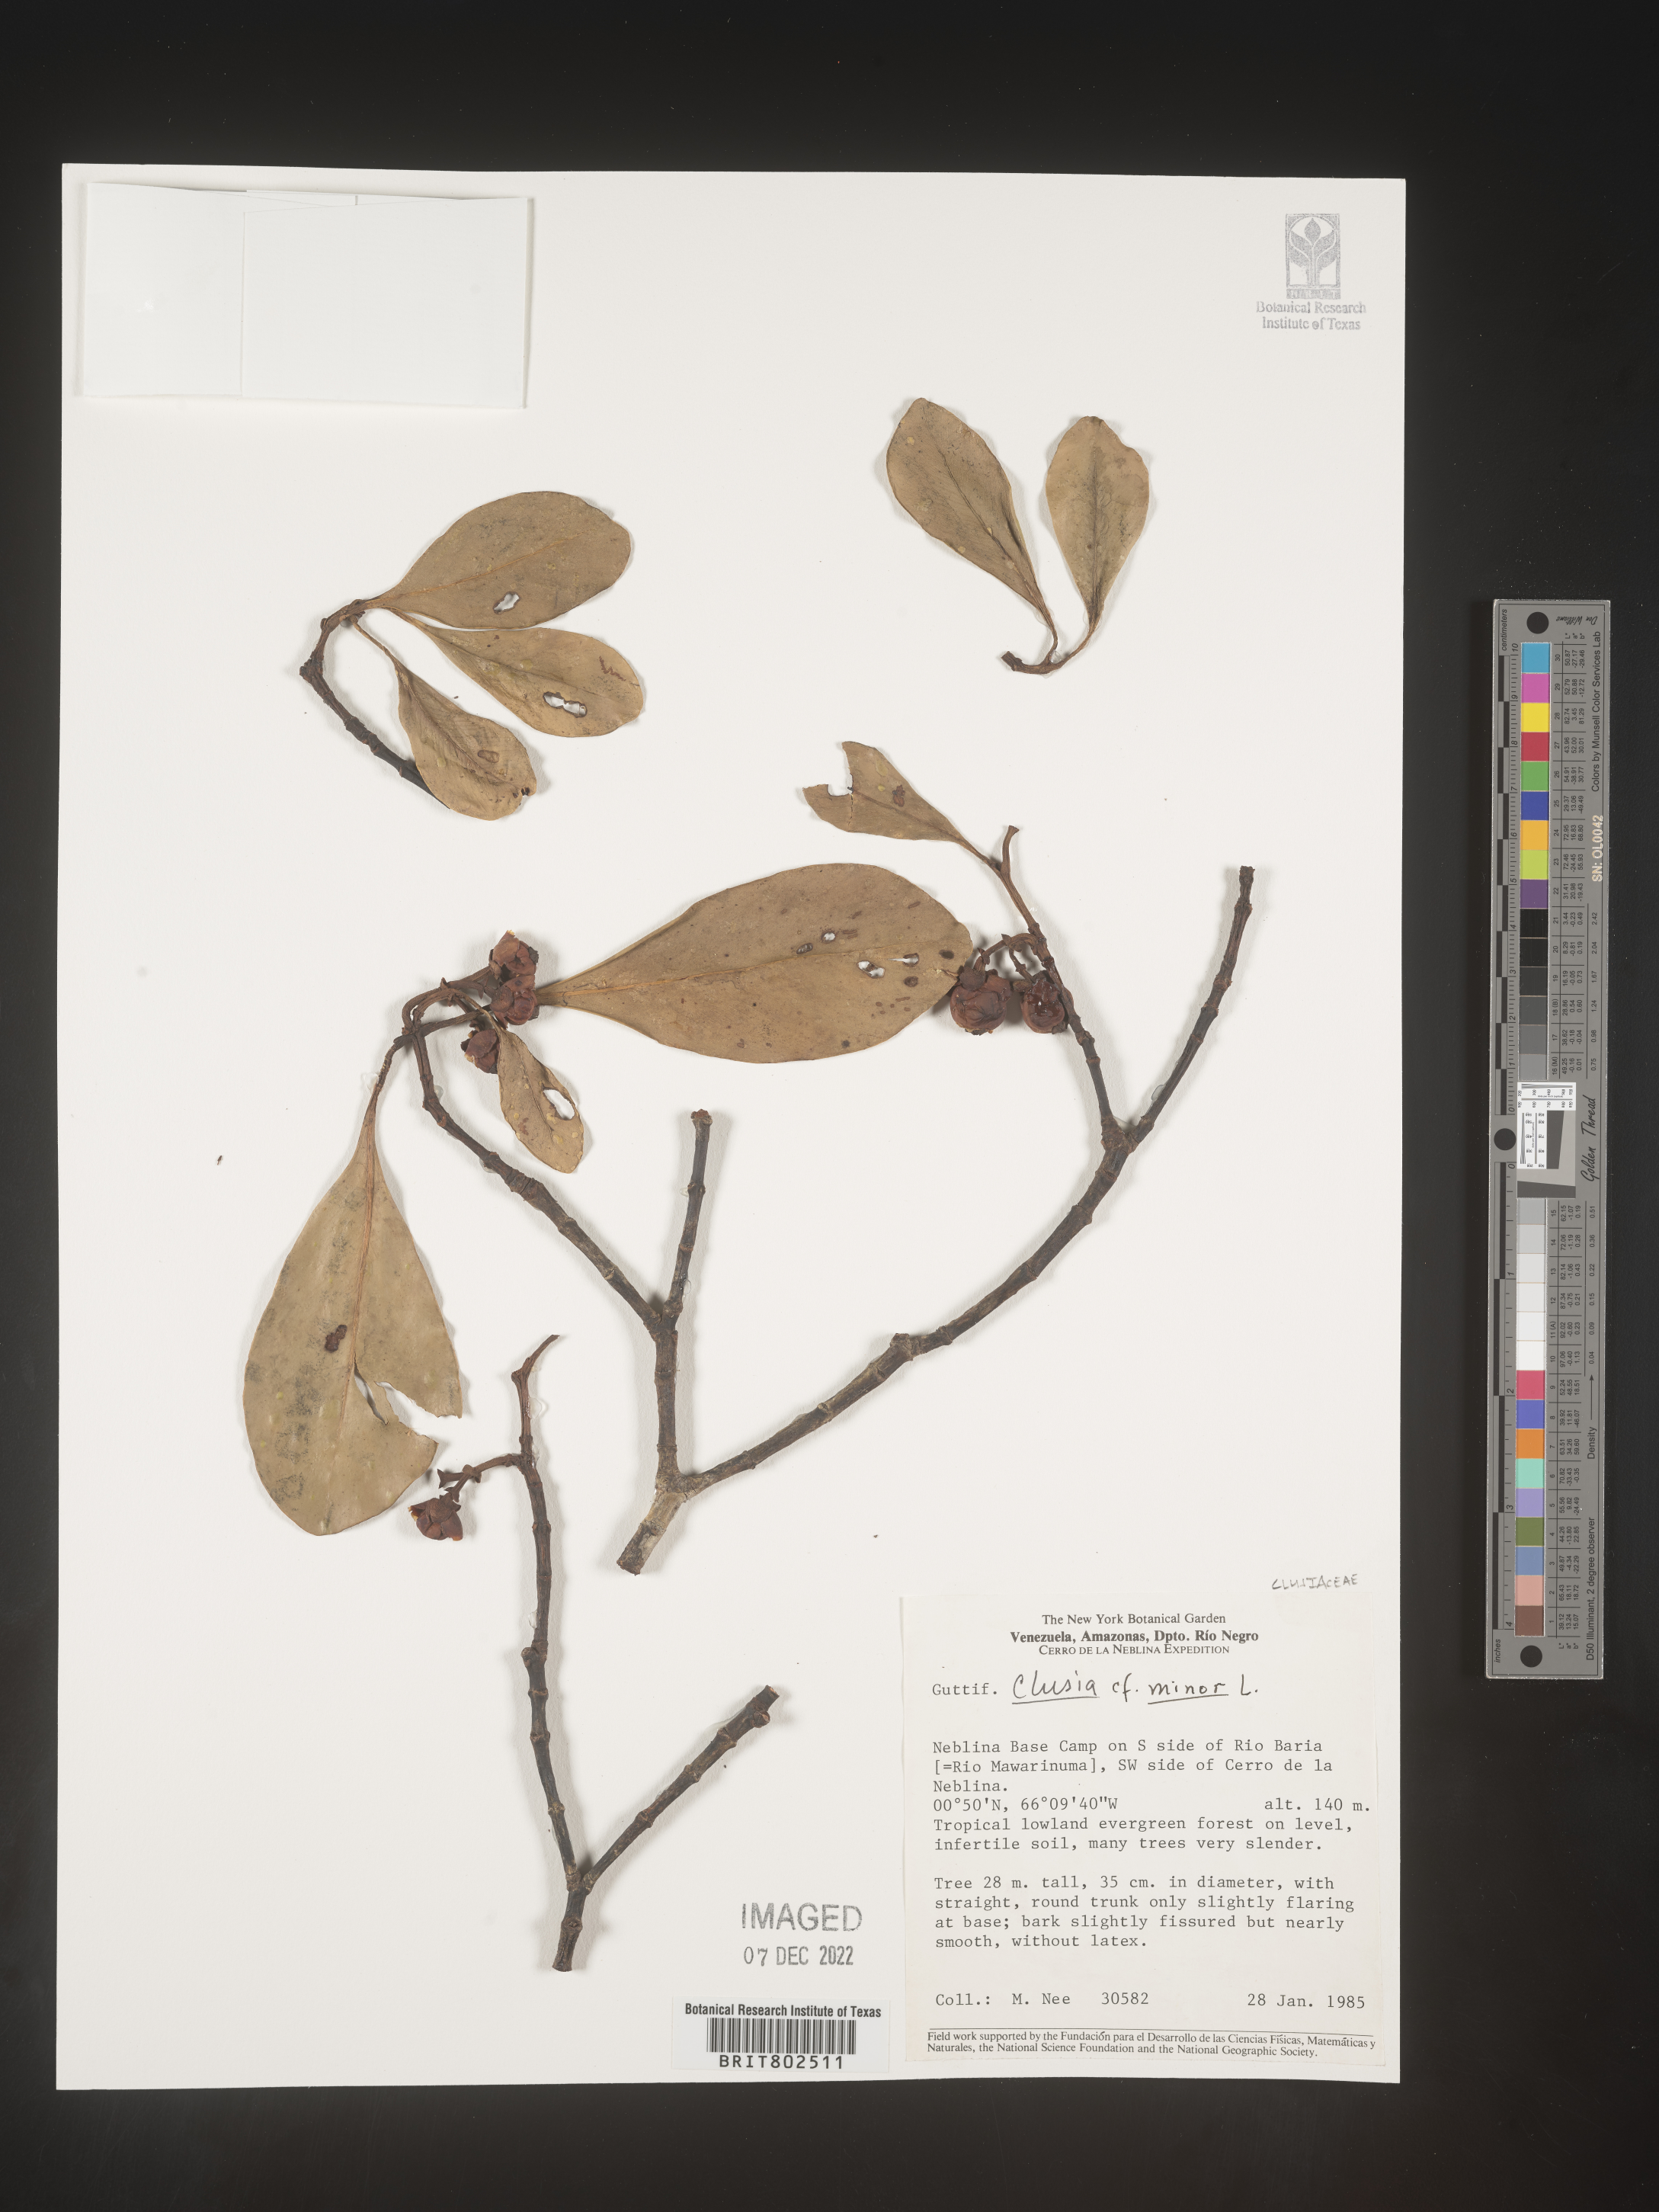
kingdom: Plantae
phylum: Tracheophyta
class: Magnoliopsida
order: Malpighiales
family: Clusiaceae
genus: Clusia
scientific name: Clusia minor
